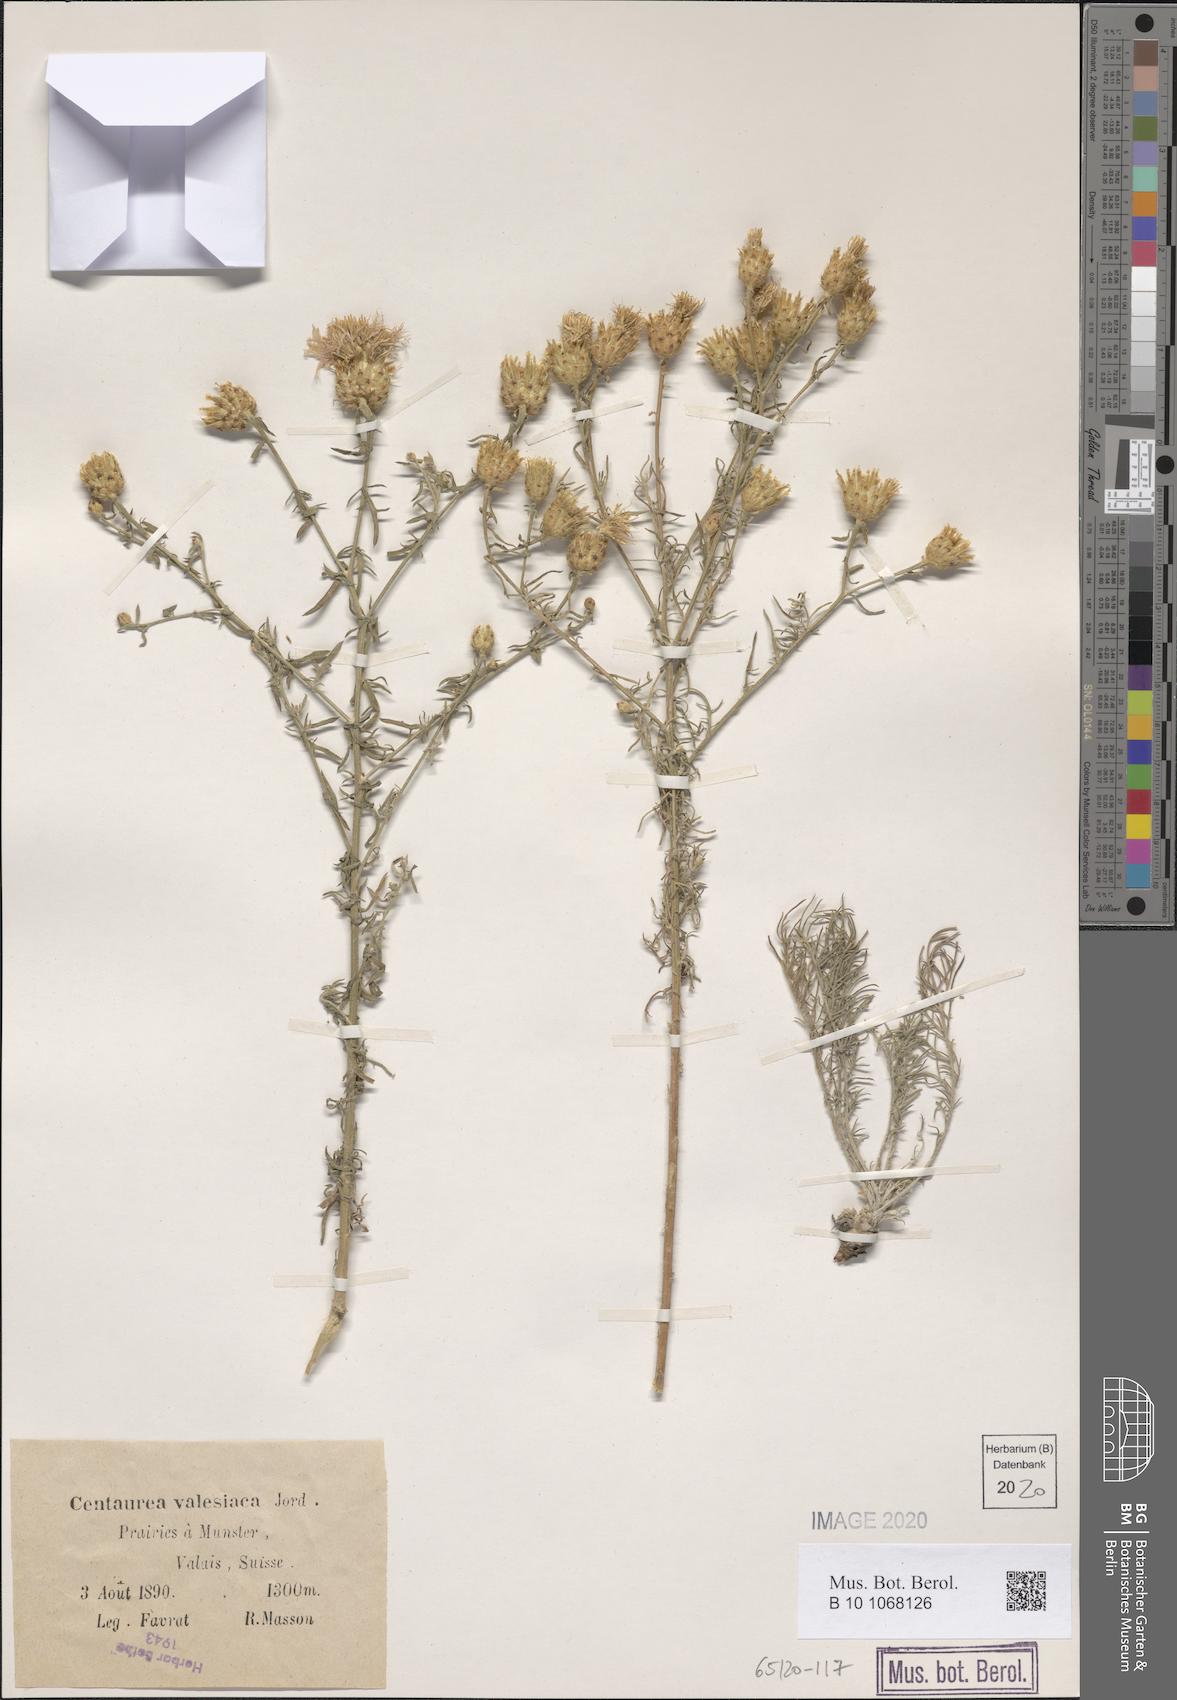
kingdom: Plantae
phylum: Tracheophyta
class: Magnoliopsida
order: Asterales
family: Asteraceae
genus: Centaurea
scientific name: Centaurea valesiaca
